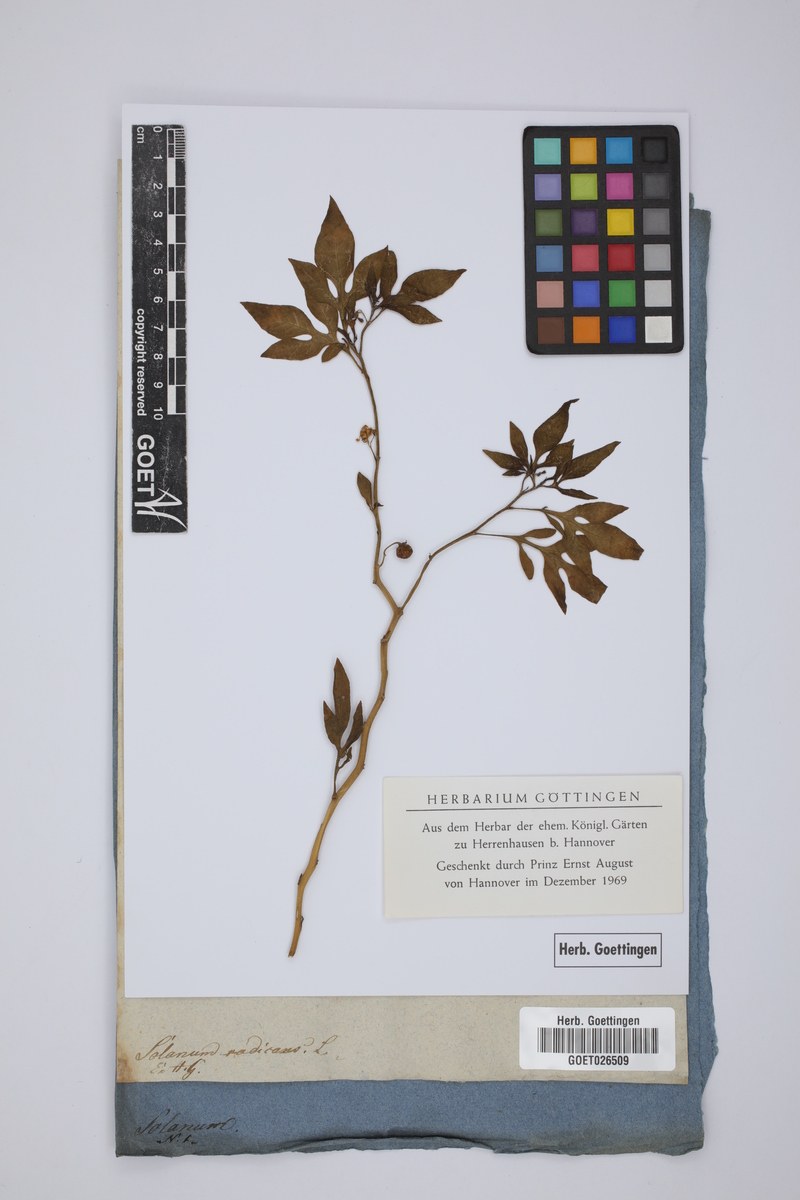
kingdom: Plantae
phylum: Tracheophyta
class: Magnoliopsida
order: Solanales
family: Solanaceae
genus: Solanum
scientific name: Solanum radicans
